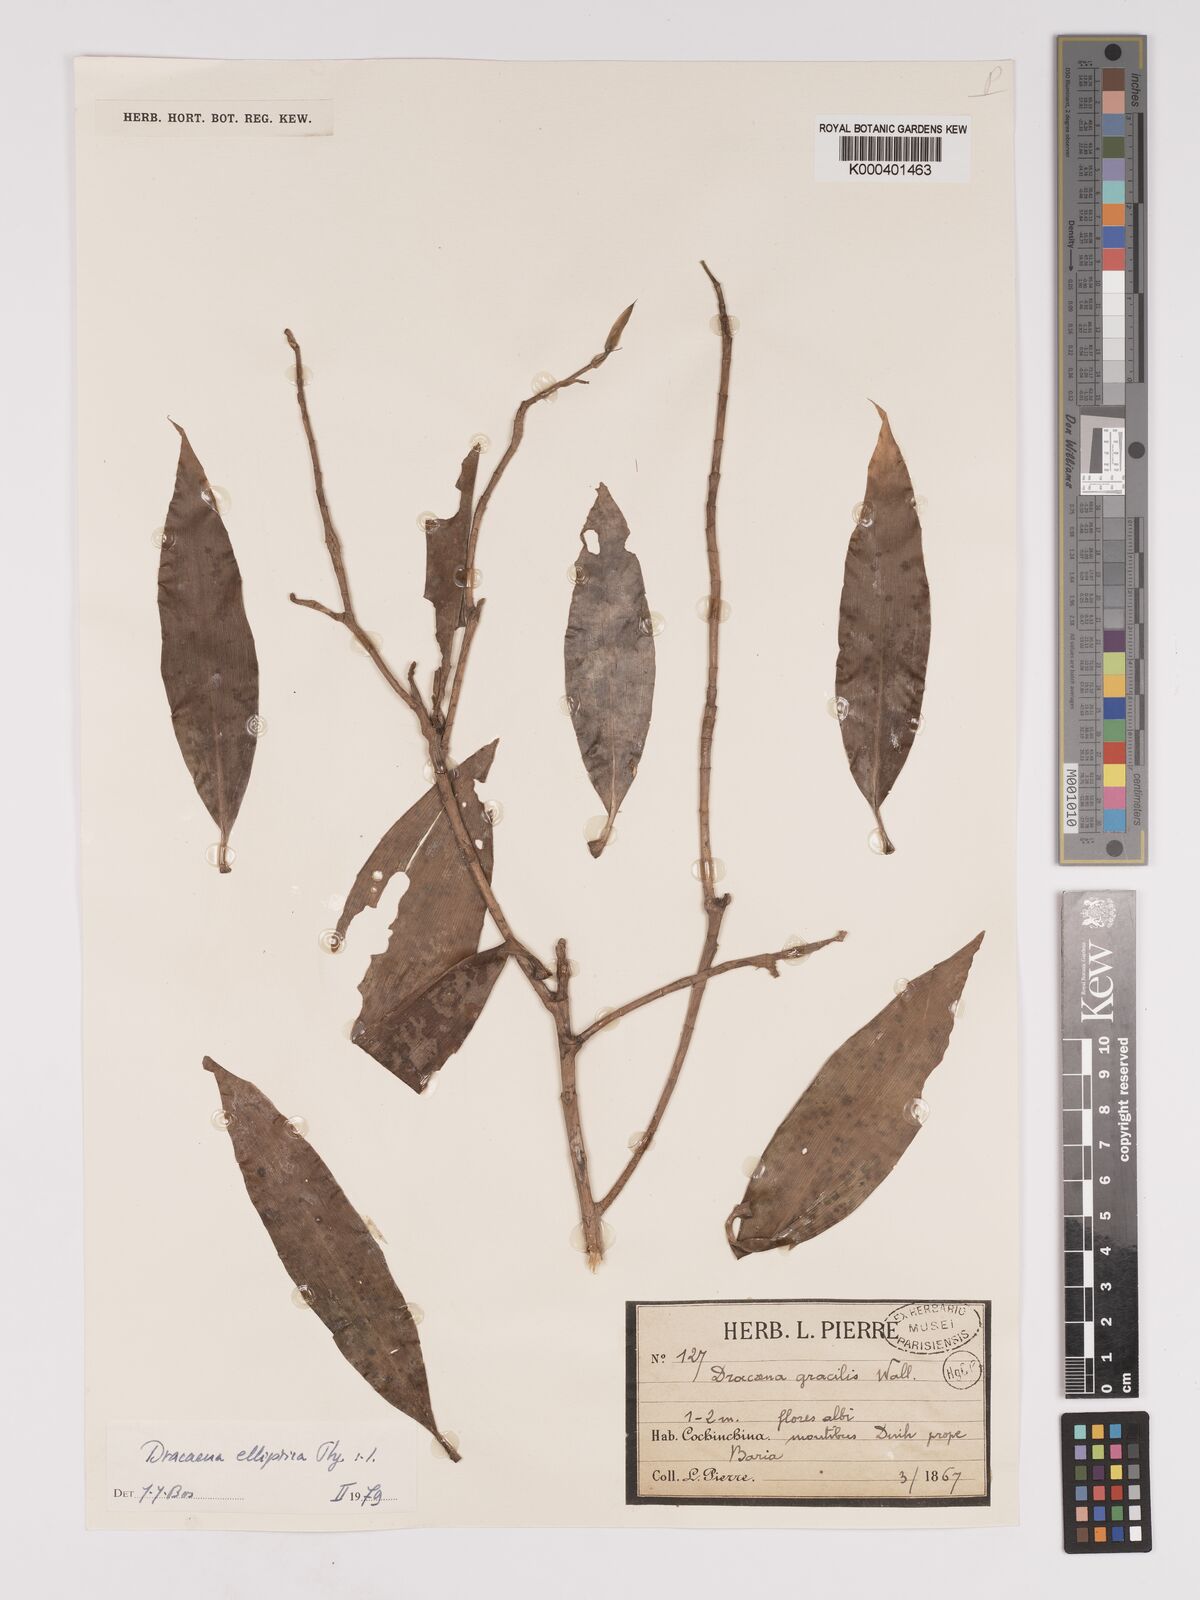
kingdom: Plantae
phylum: Tracheophyta
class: Liliopsida
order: Asparagales
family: Asparagaceae
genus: Dracaena
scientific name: Dracaena elliptica
